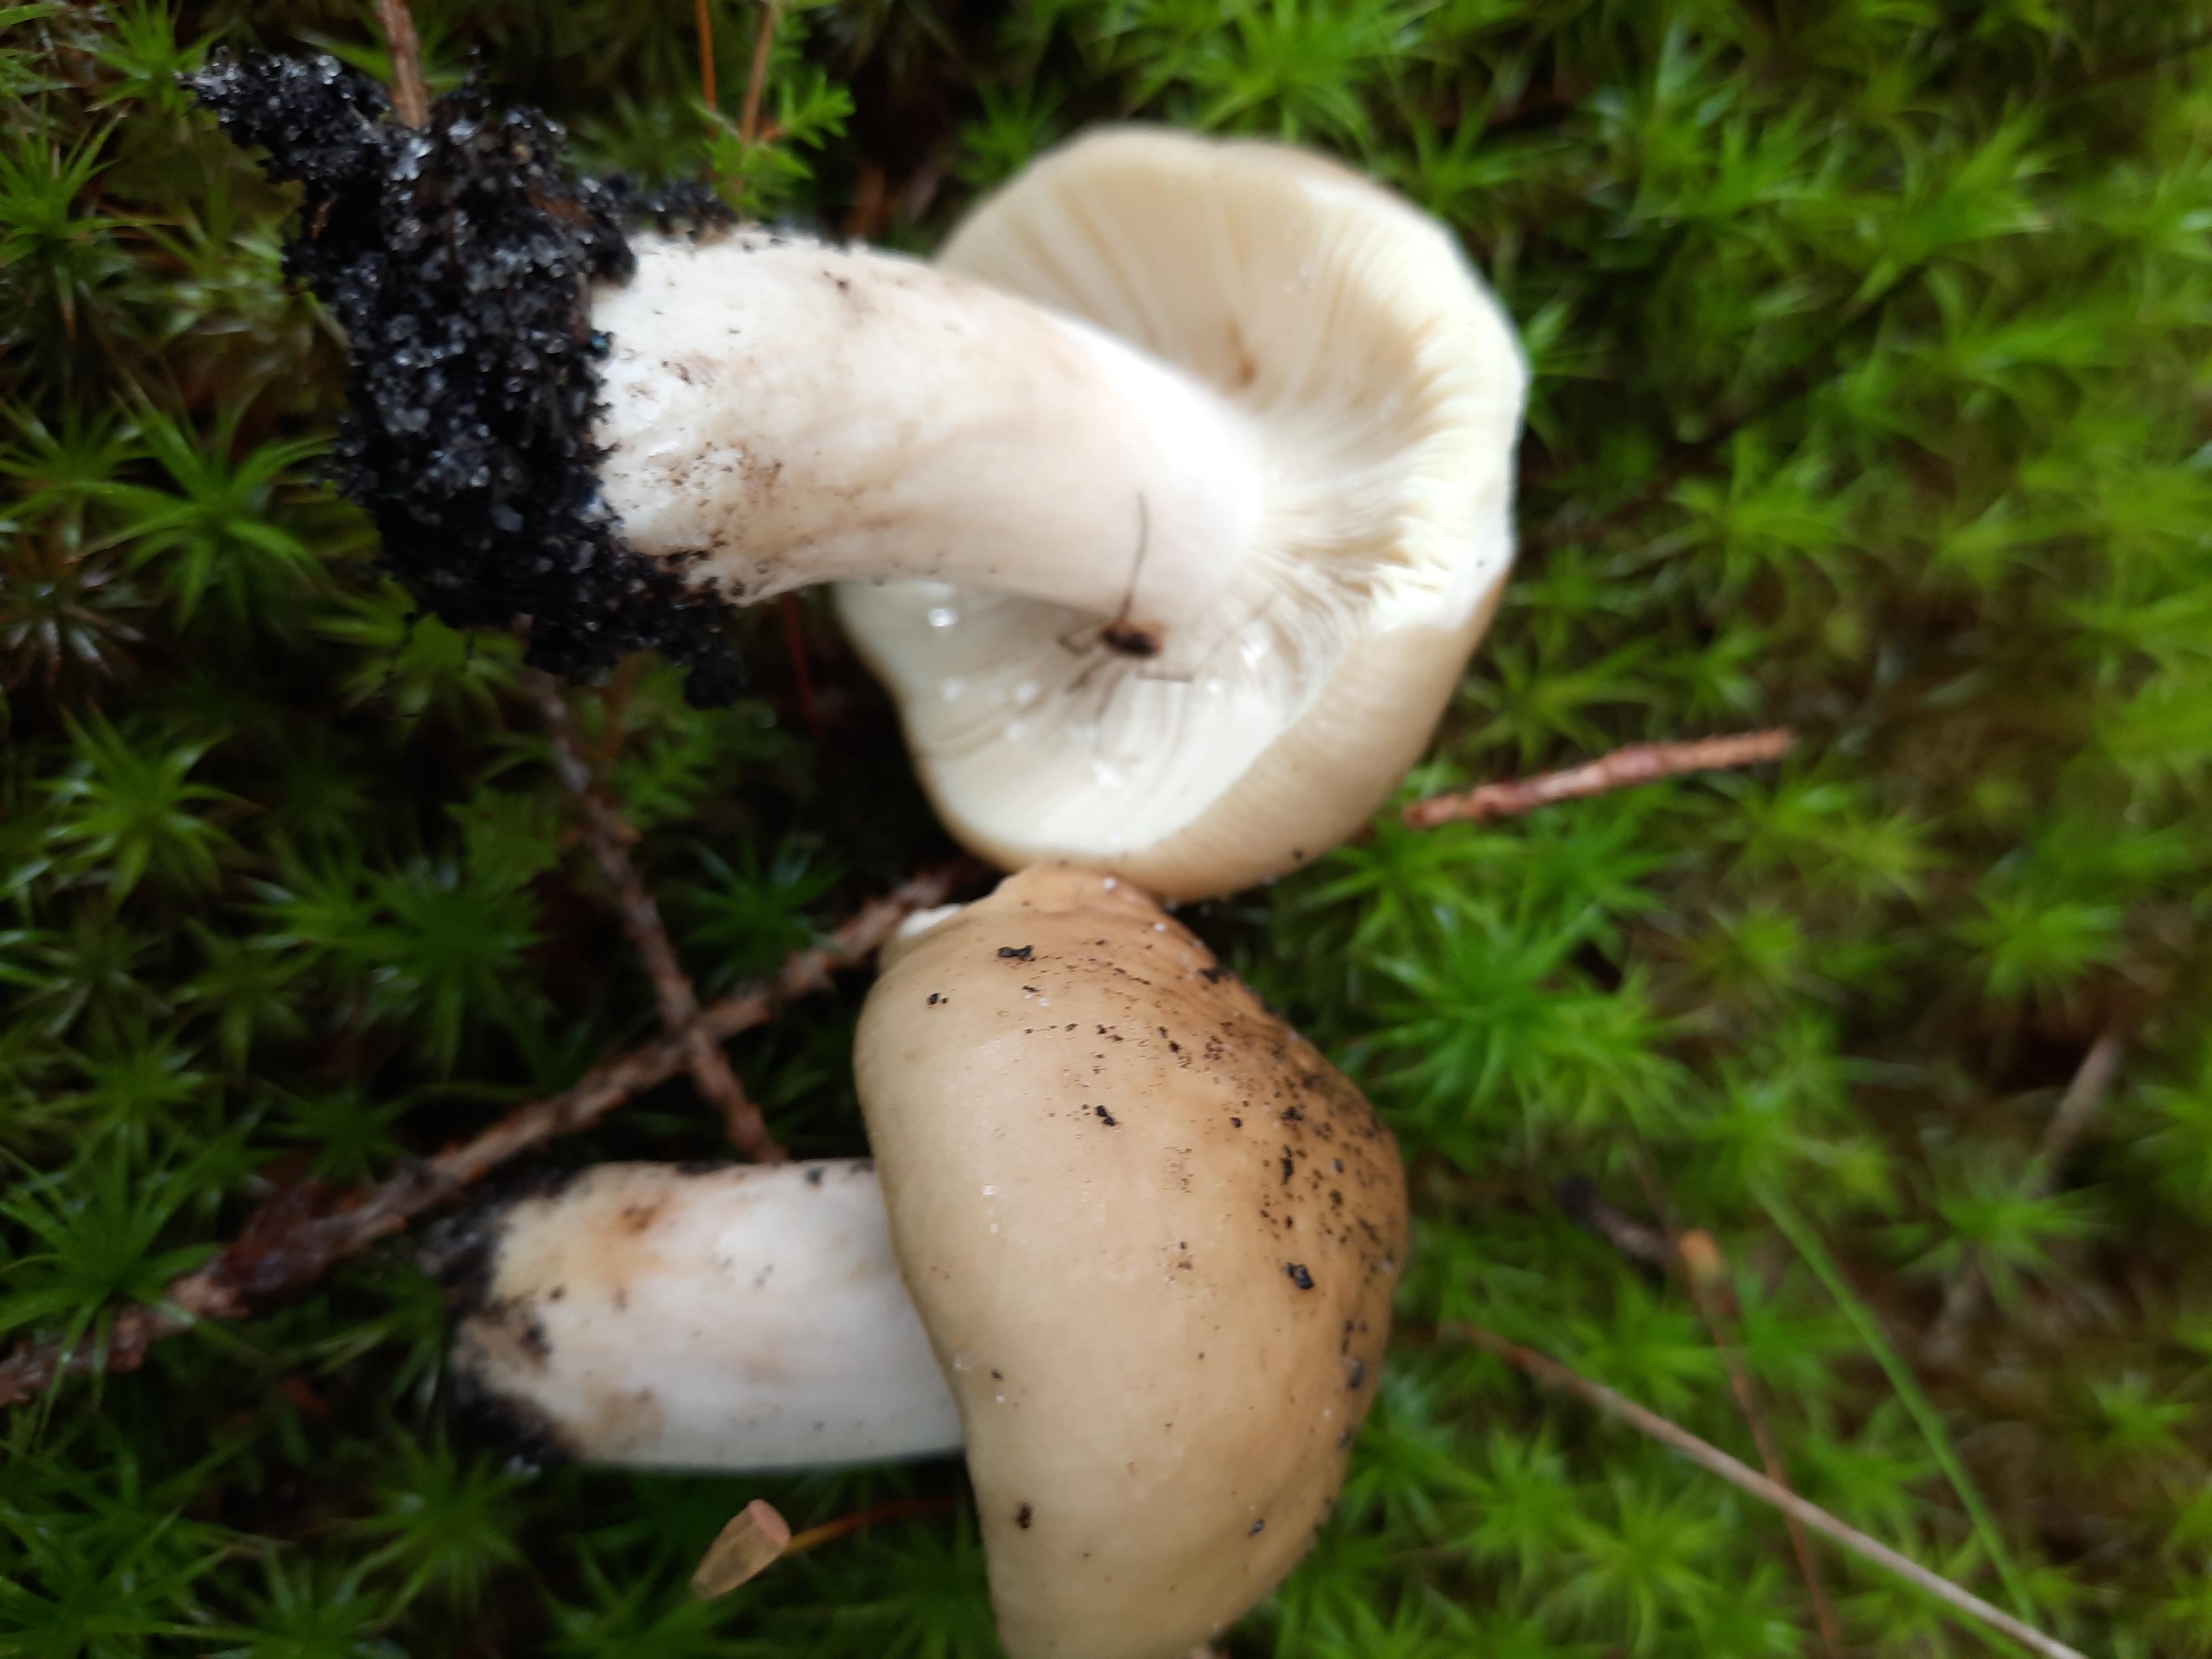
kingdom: Fungi
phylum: Basidiomycota
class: Agaricomycetes
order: Russulales
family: Russulaceae
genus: Russula
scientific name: Russula sardonia
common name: citronbladet skørhat
